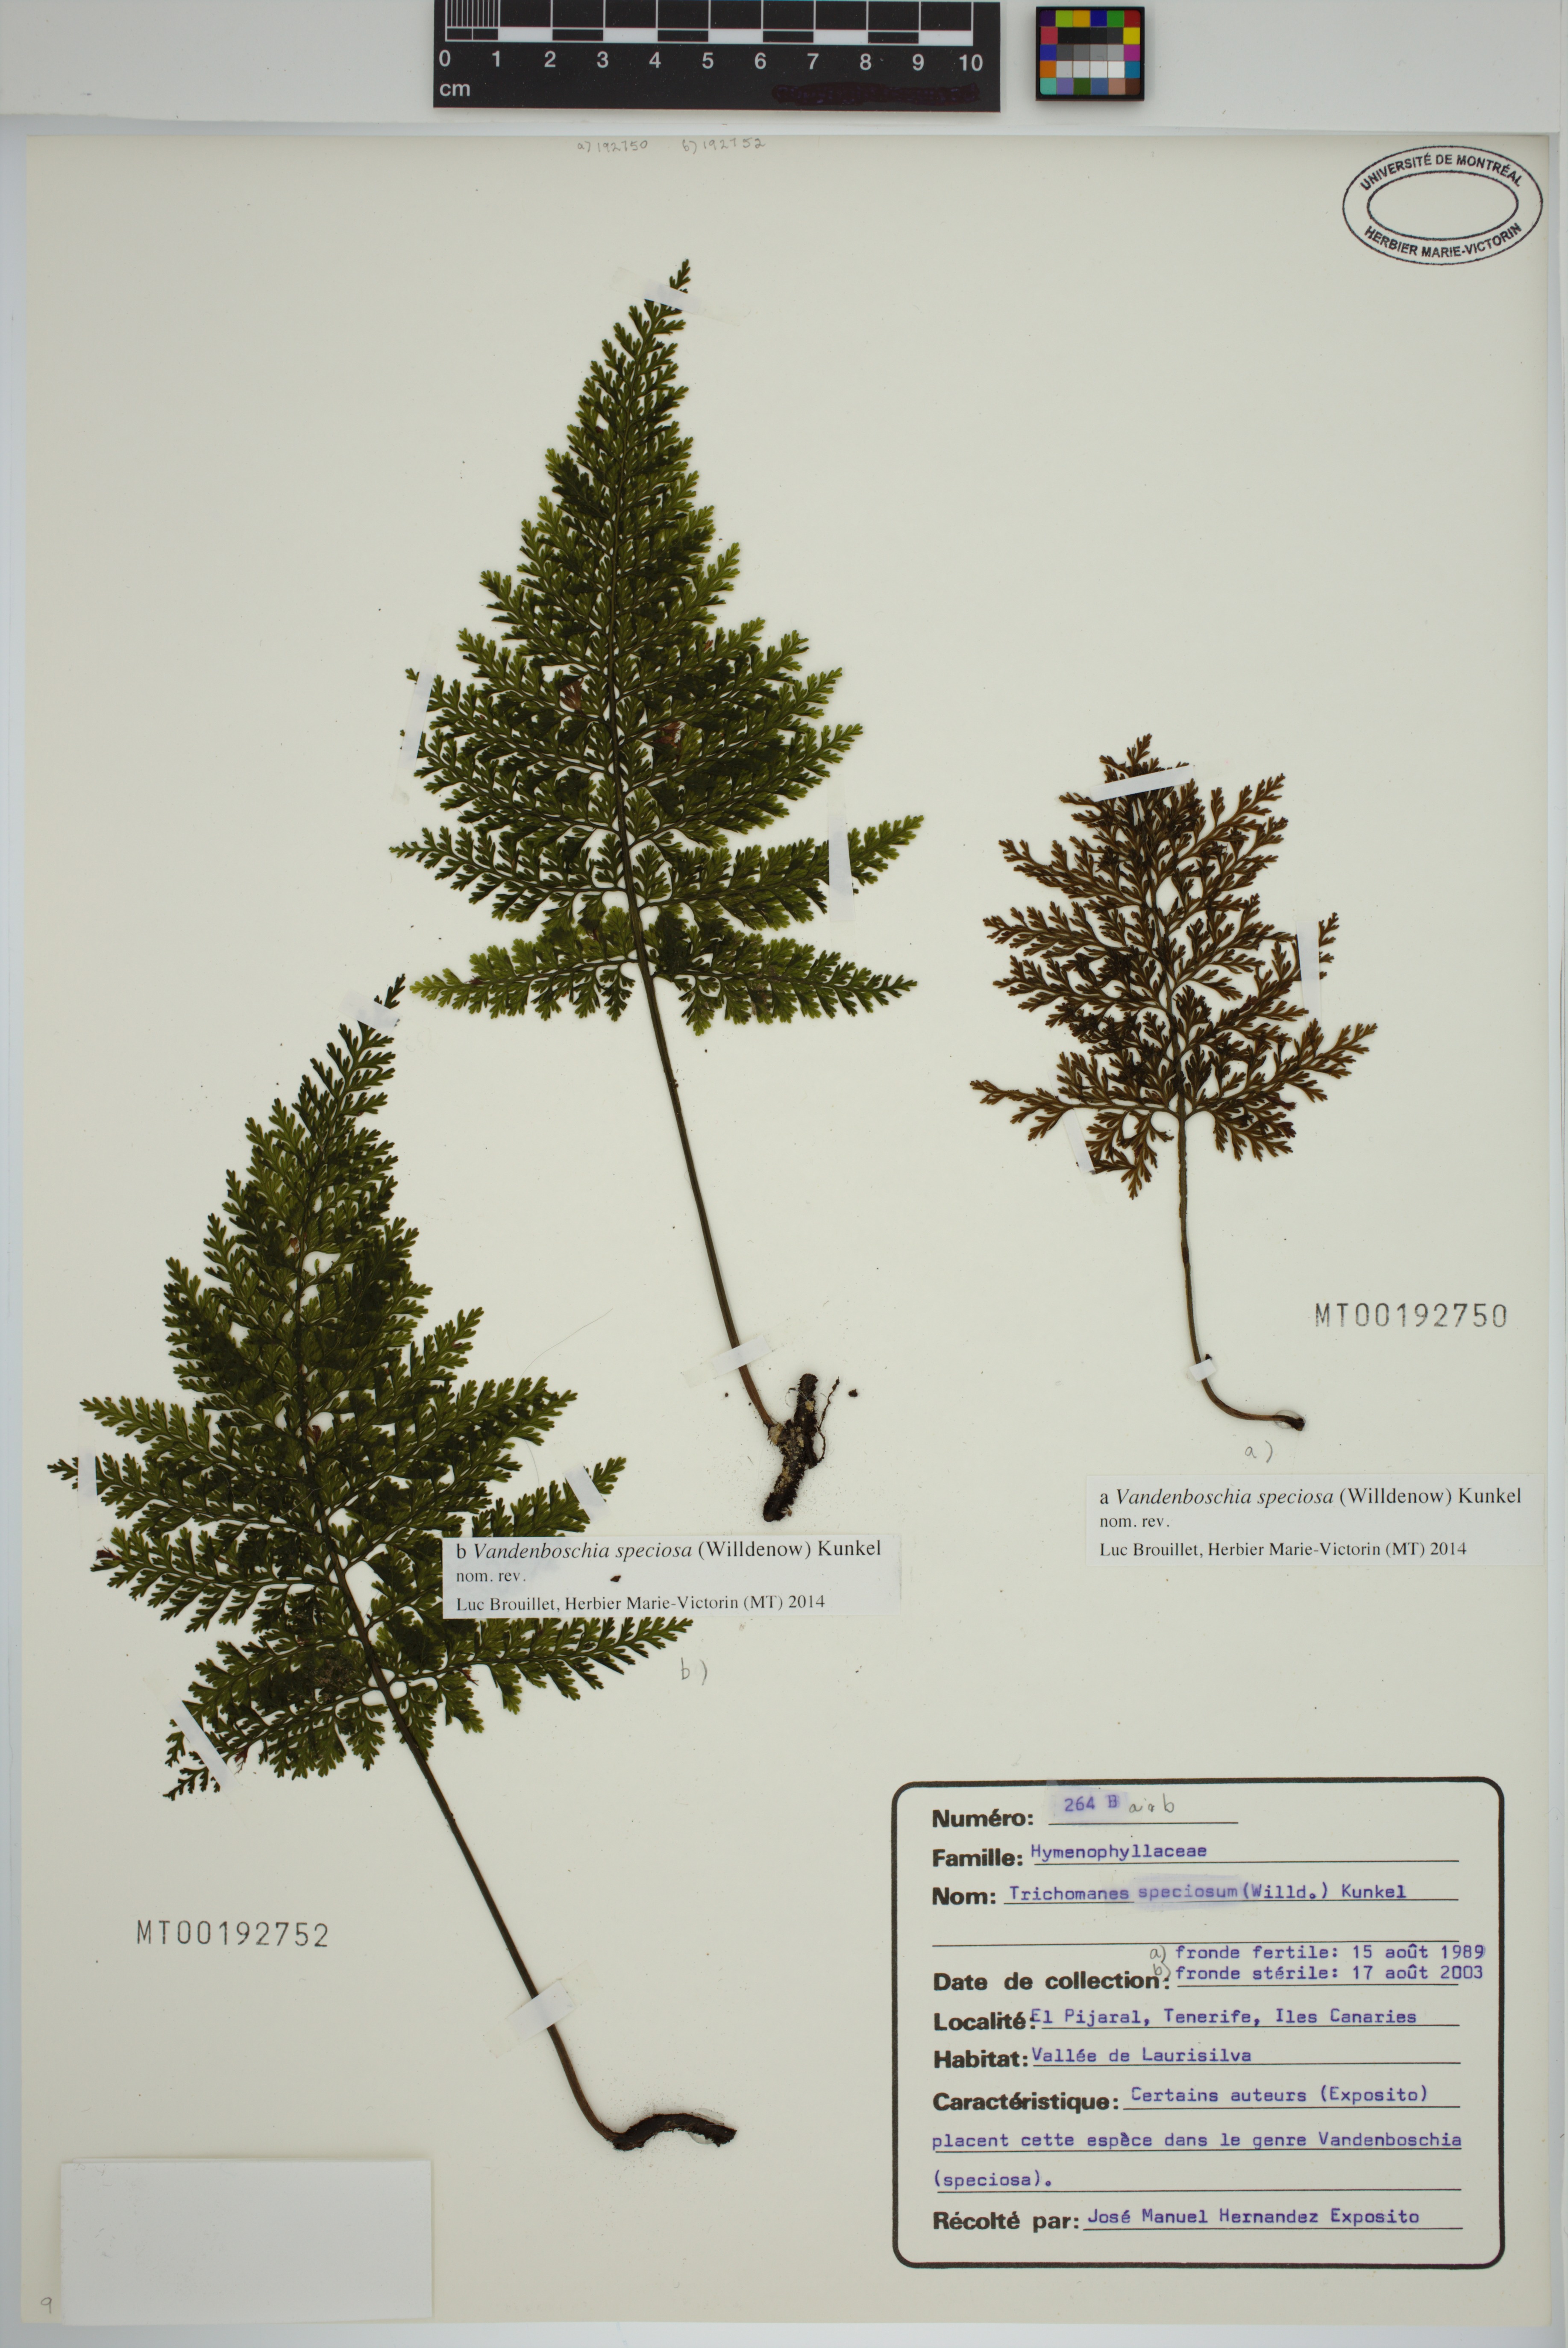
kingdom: Plantae
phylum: Tracheophyta
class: Polypodiopsida
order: Hymenophyllales
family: Hymenophyllaceae
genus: Vandenboschia
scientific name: Vandenboschia speciosa
